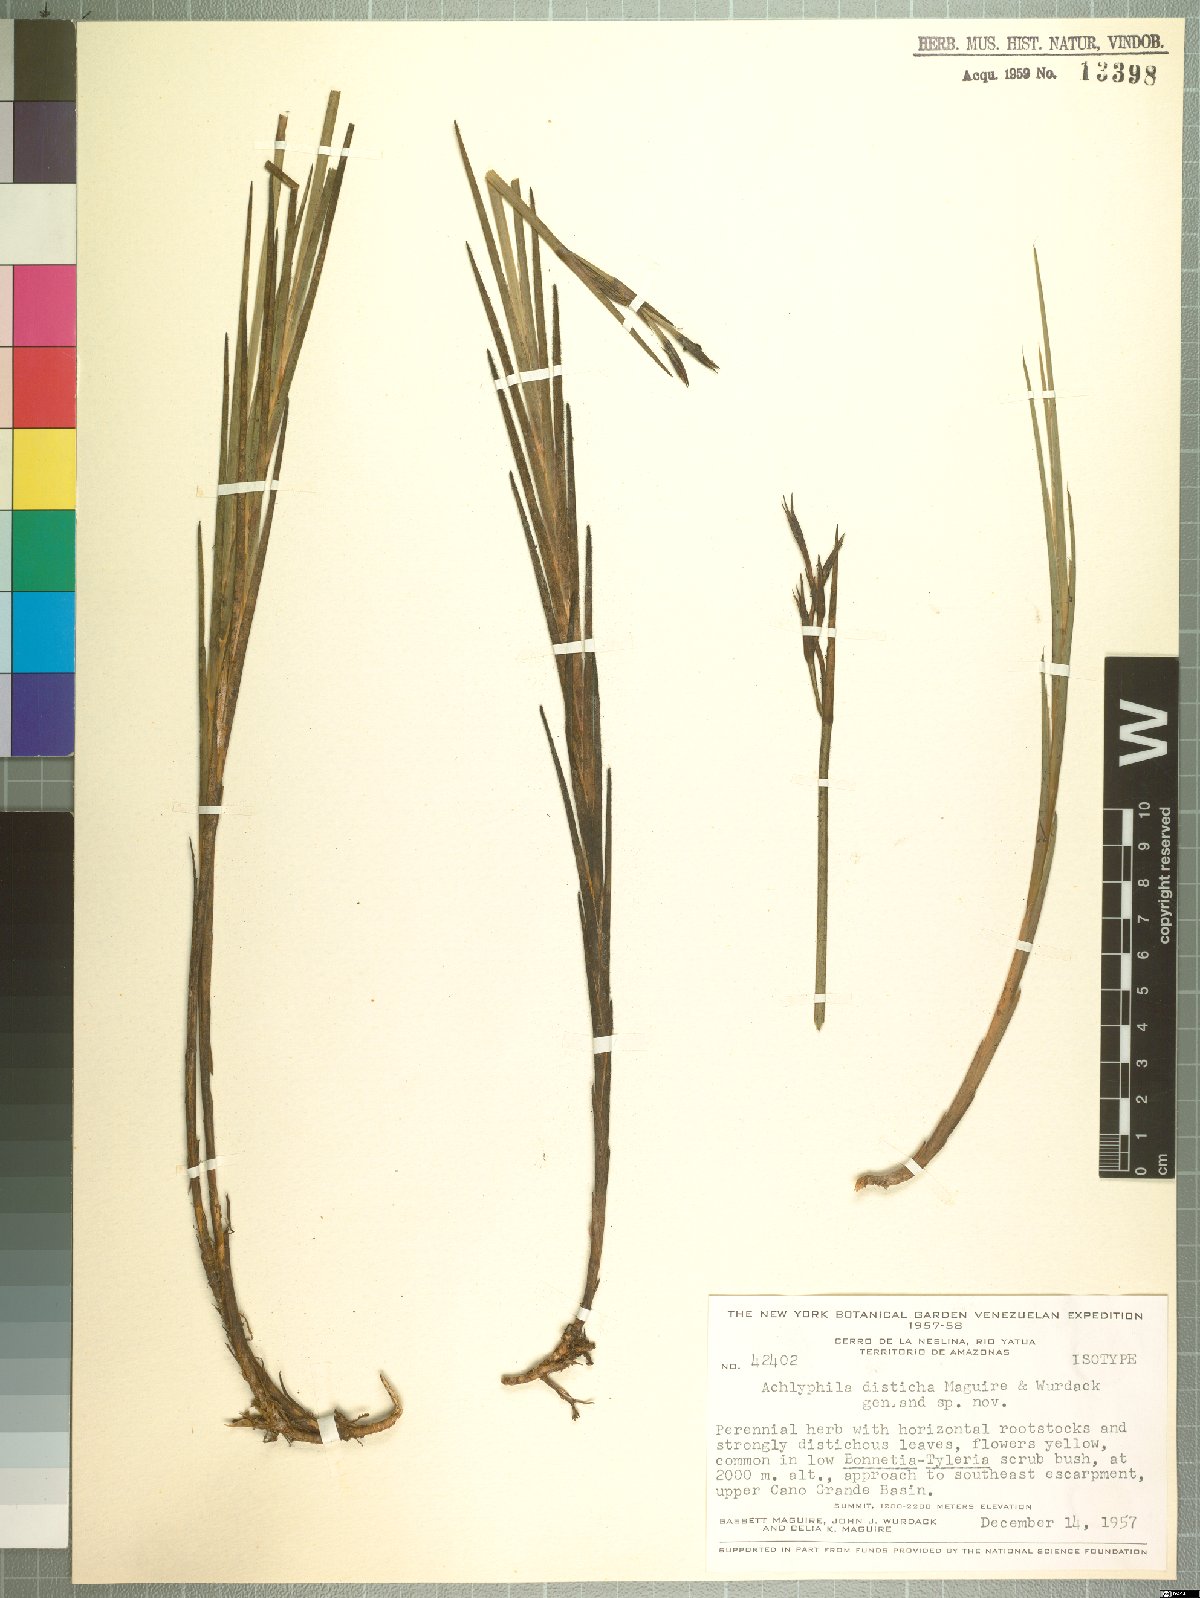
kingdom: Plantae
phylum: Tracheophyta
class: Liliopsida
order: Poales
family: Xyridaceae
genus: Achlyphila
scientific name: Achlyphila disticha
